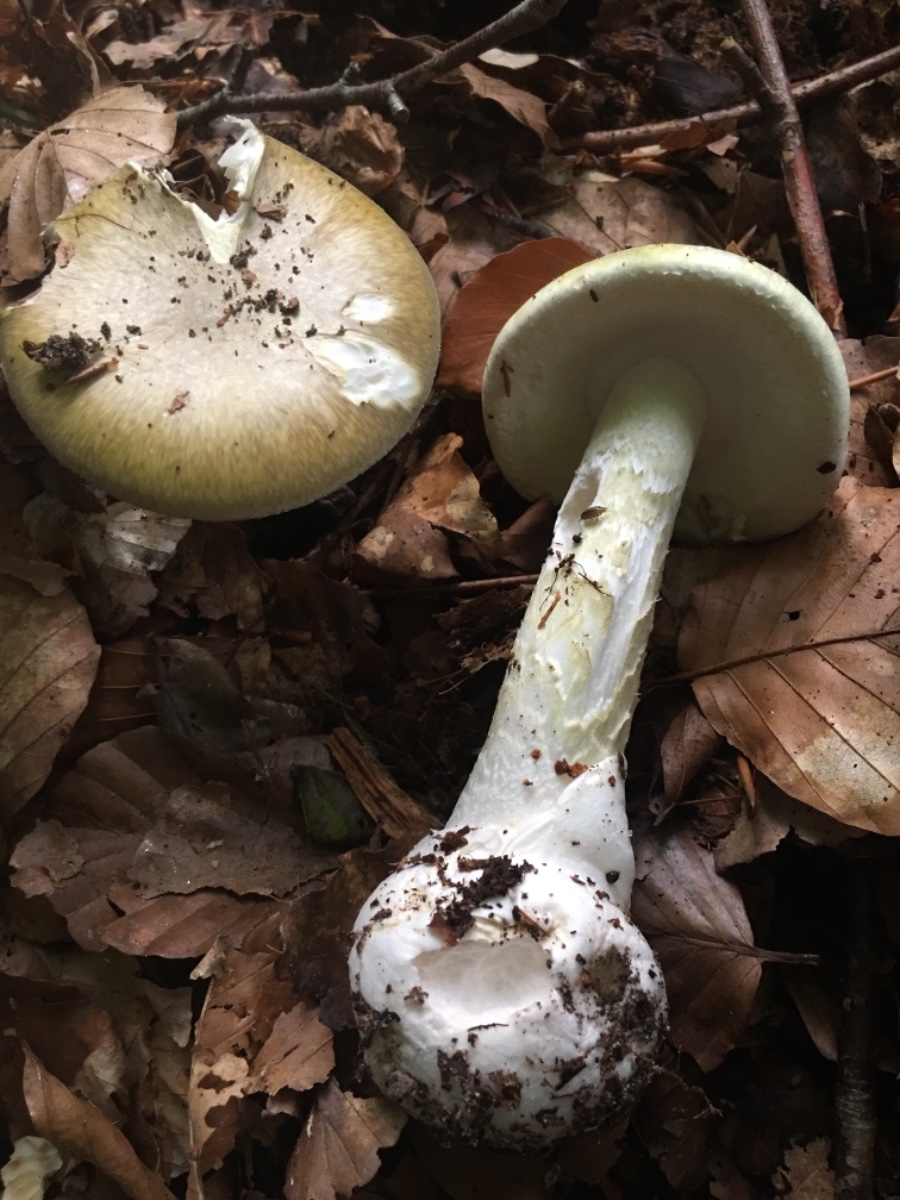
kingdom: Fungi
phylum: Basidiomycota
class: Agaricomycetes
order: Agaricales
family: Amanitaceae
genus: Amanita
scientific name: Amanita phalloides
